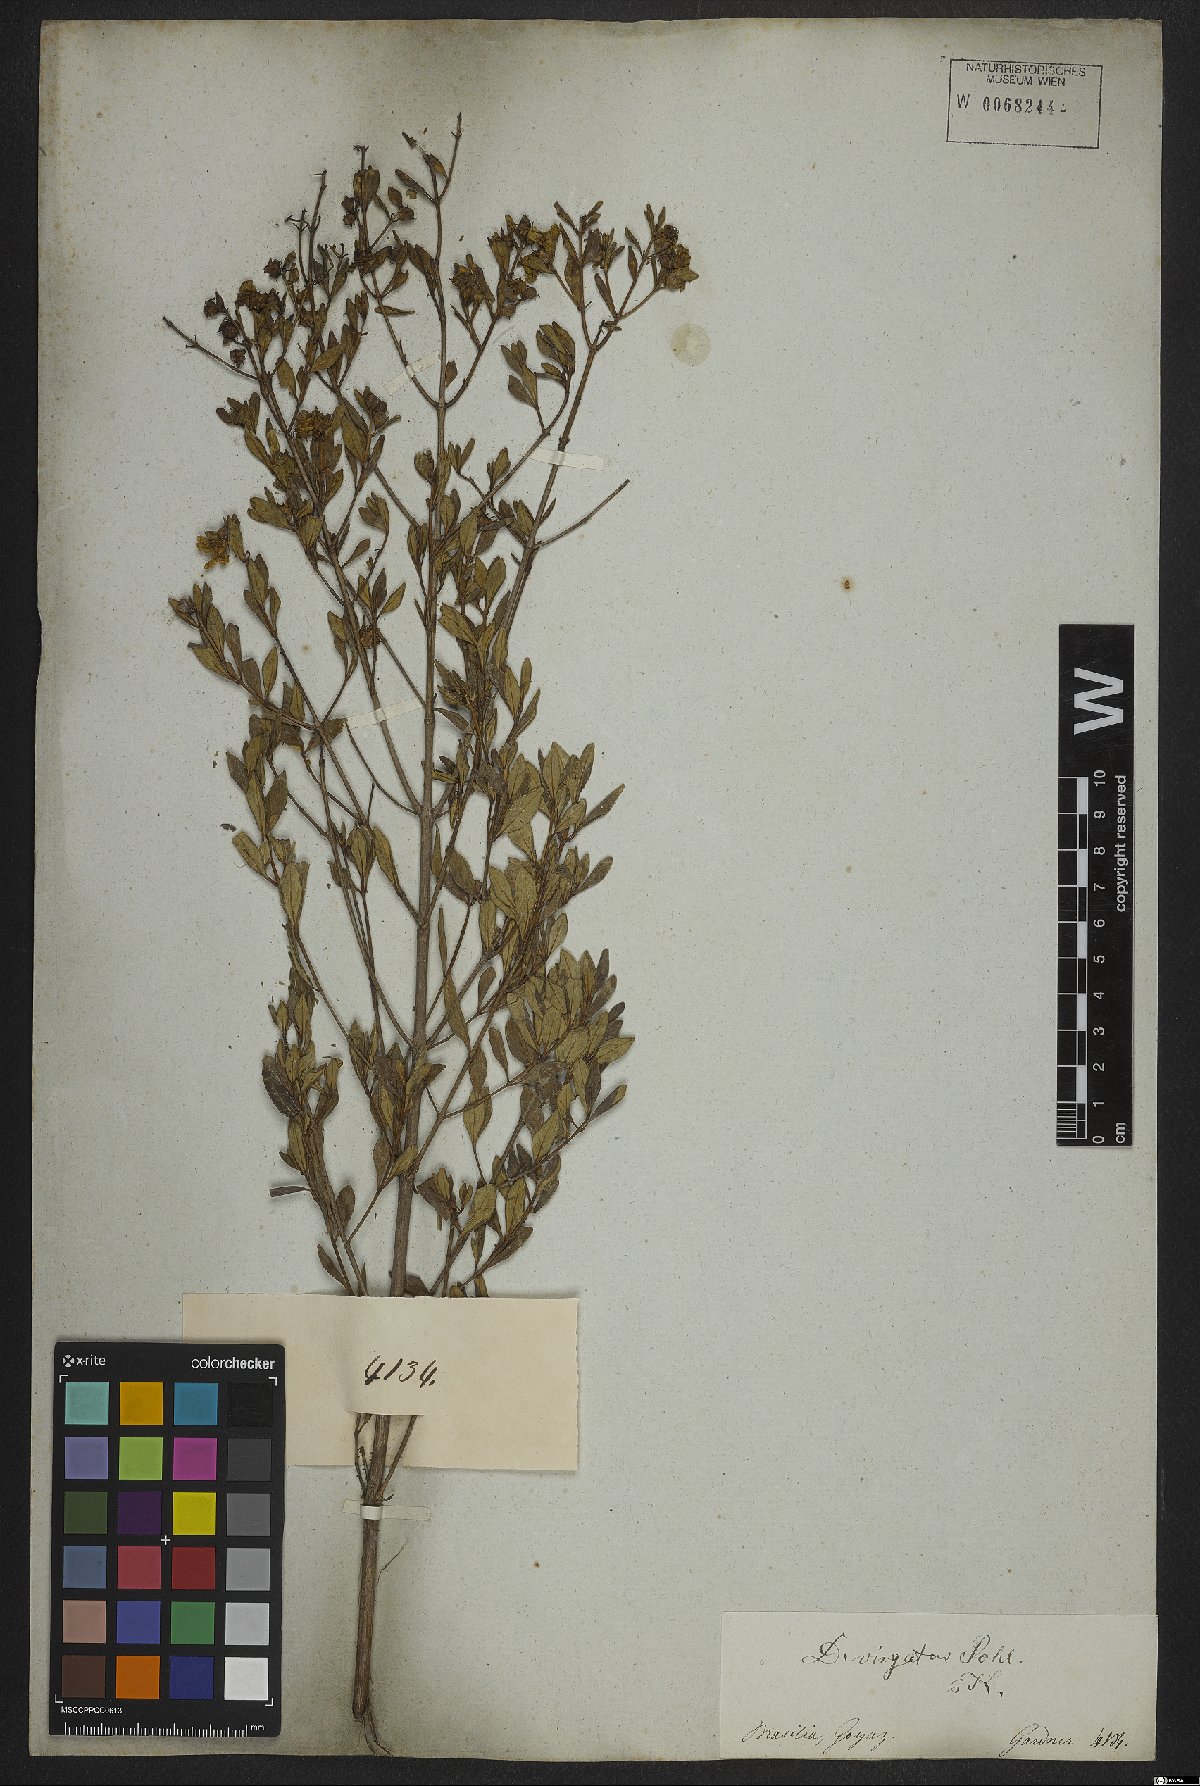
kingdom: Plantae
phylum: Tracheophyta
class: Magnoliopsida
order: Myrtales
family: Lythraceae
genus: Diplusodon
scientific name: Diplusodon virgatus
